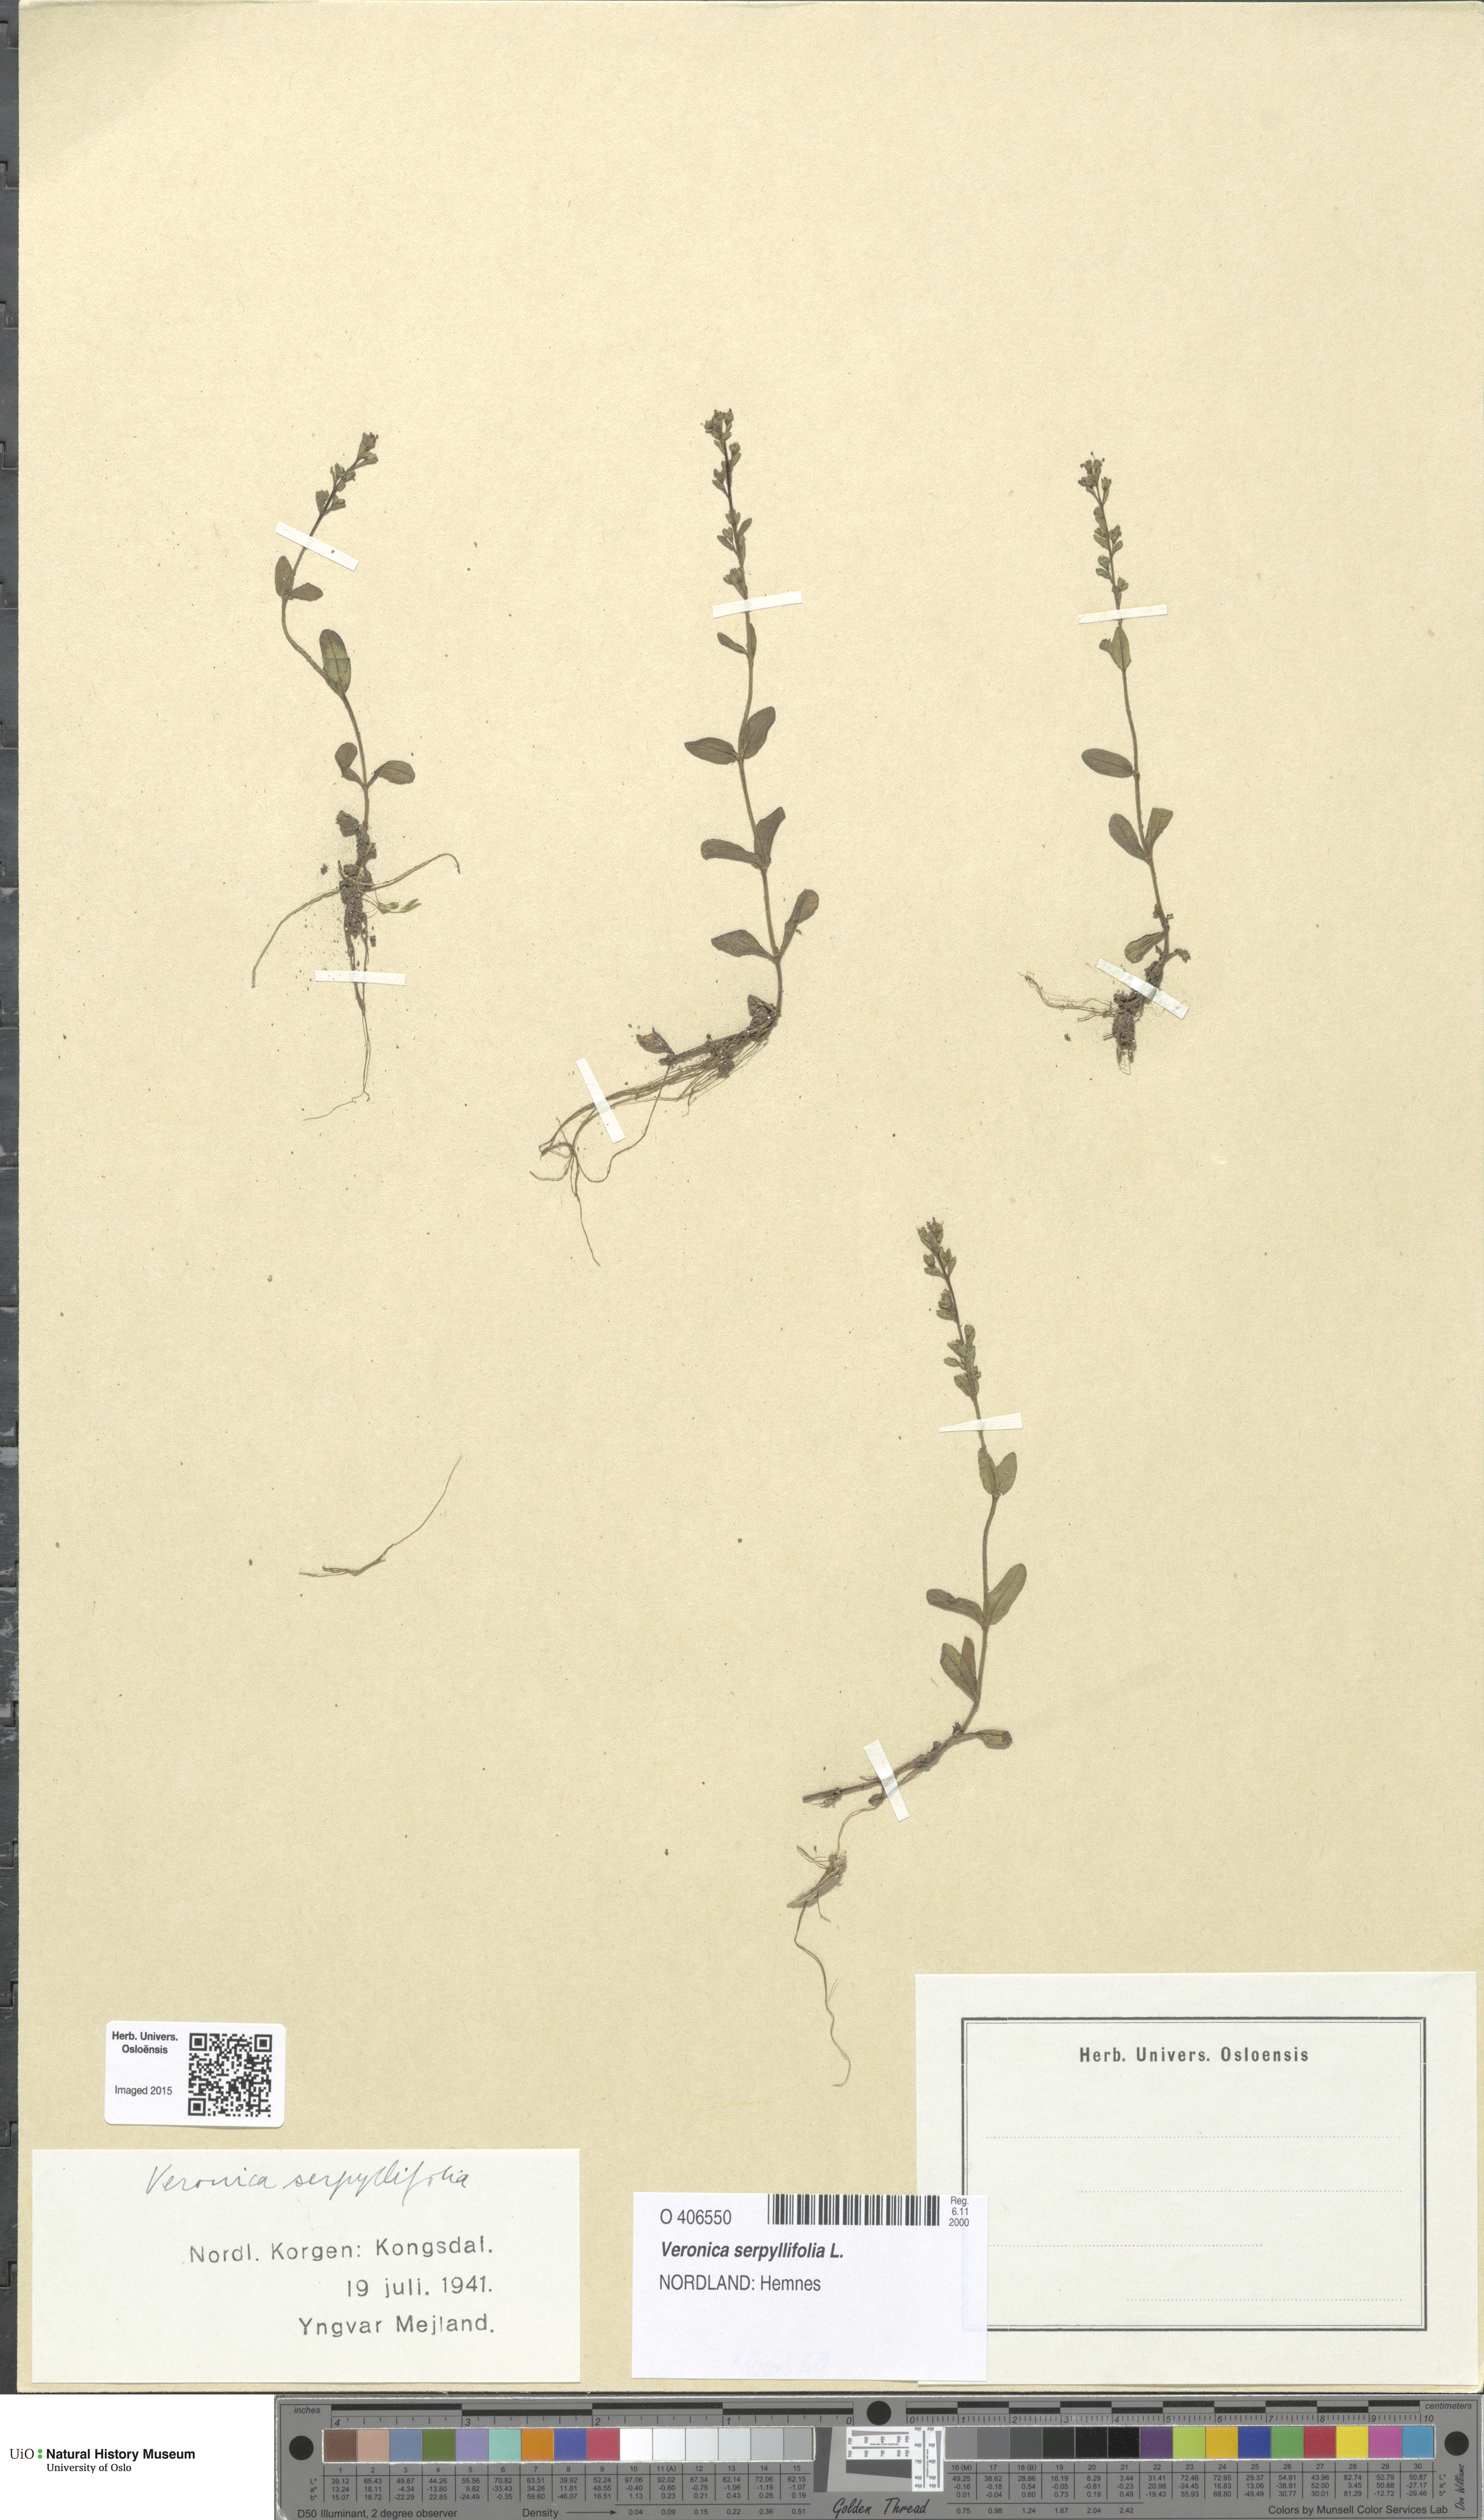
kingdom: Plantae
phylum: Tracheophyta
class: Magnoliopsida
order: Lamiales
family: Plantaginaceae
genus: Veronica
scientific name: Veronica serpyllifolia
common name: Thyme-leaved speedwell
